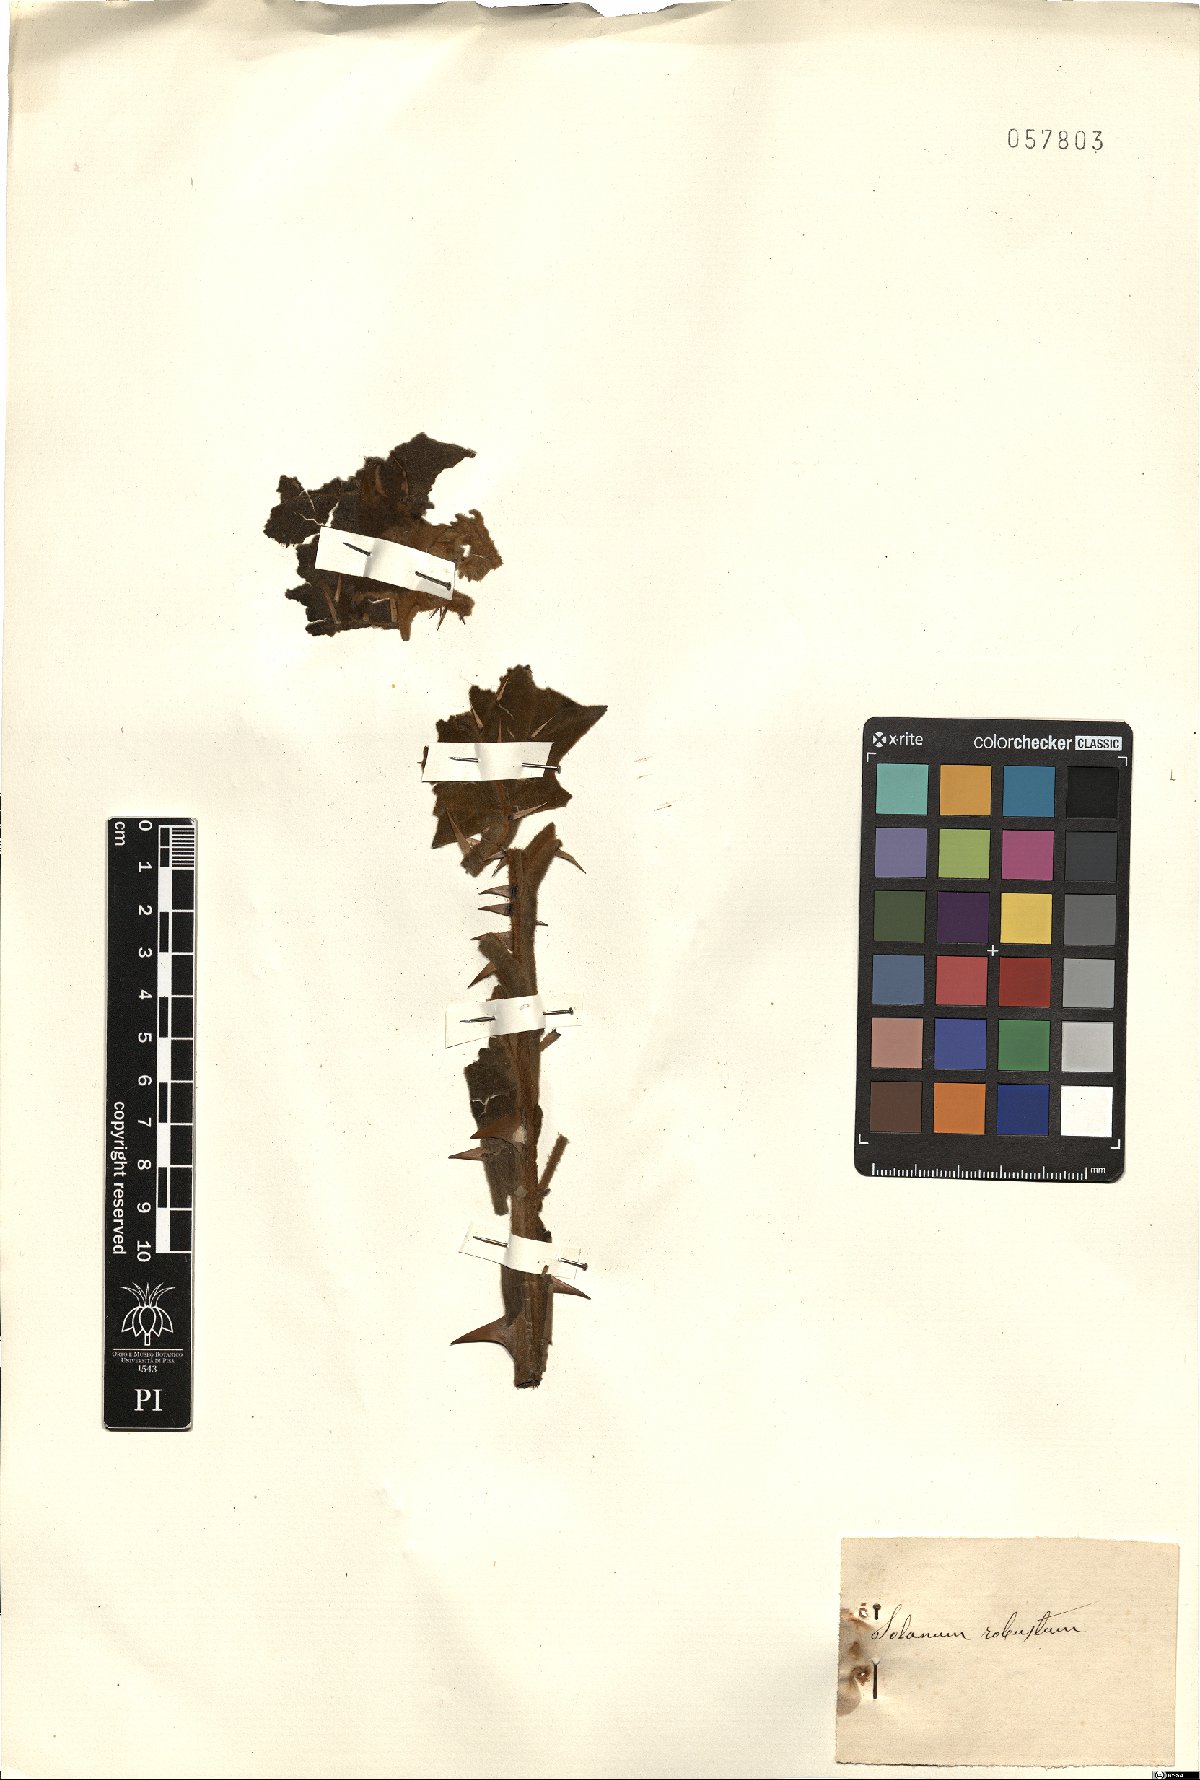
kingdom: Plantae
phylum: Tracheophyta
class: Magnoliopsida
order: Solanales
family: Solanaceae
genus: Solanum
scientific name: Solanum robustum
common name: Shrubby nightshade
